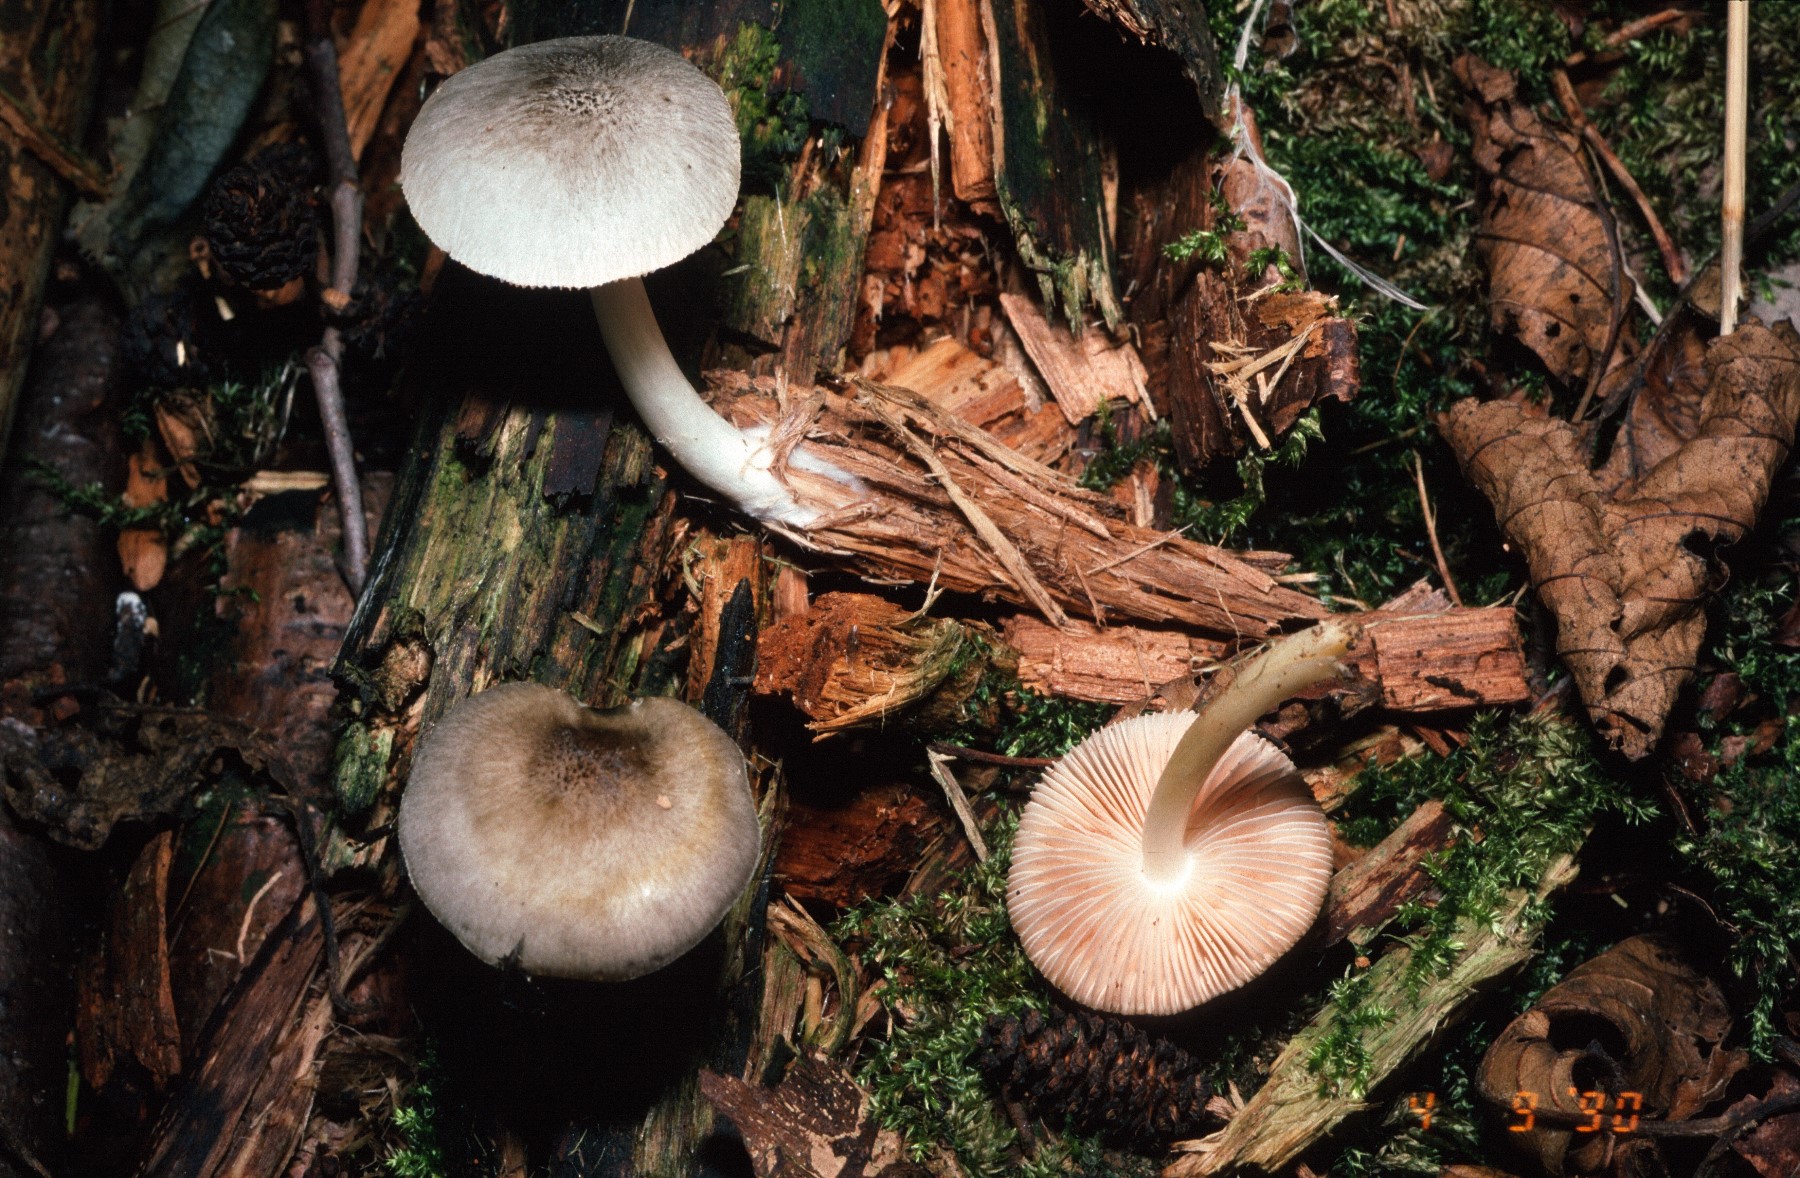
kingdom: Fungi
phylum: Basidiomycota
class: Agaricomycetes
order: Agaricales
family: Pluteaceae
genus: Pluteus
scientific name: Pluteus salicinus
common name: stiv skærmhat
